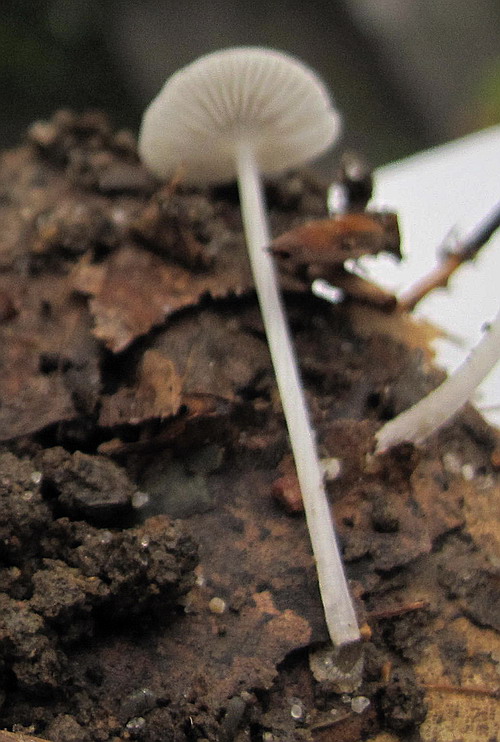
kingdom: Fungi
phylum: Basidiomycota
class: Agaricomycetes
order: Agaricales
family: Mycenaceae
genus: Mycena
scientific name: Mycena stylobates
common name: fureskivet huesvamp
